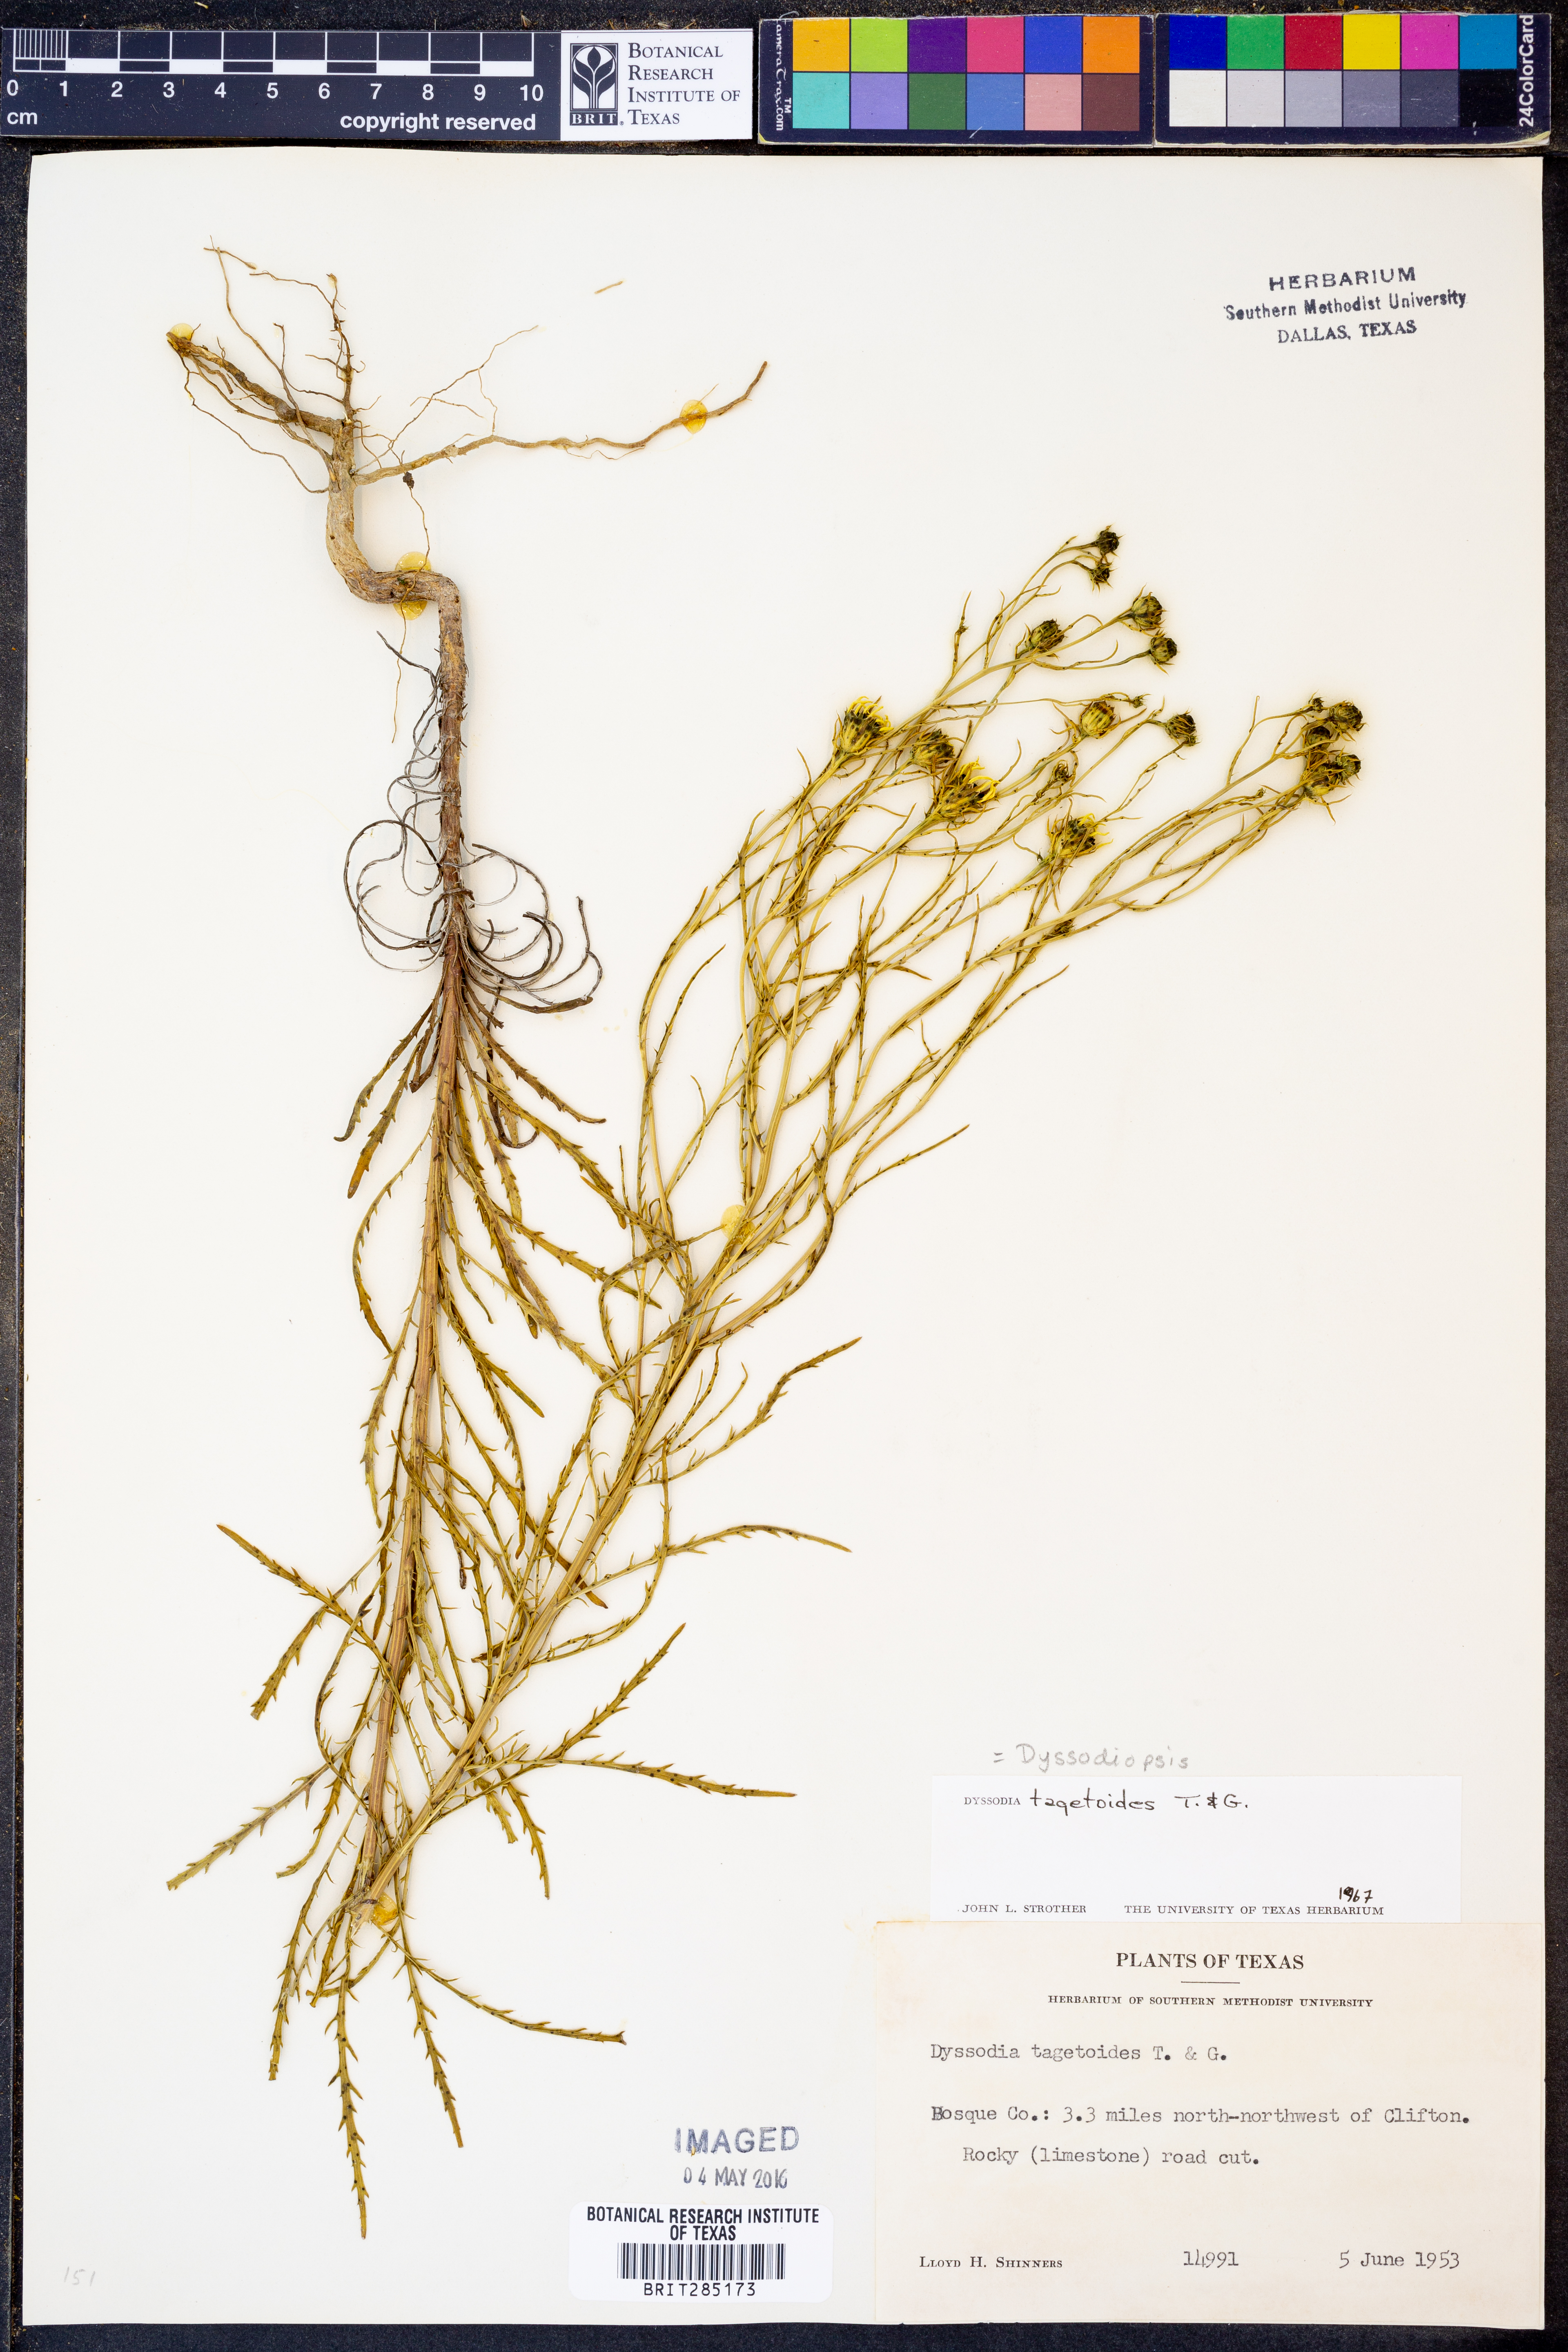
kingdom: Plantae
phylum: Tracheophyta
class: Magnoliopsida
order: Asterales
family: Asteraceae
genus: Dysodiopsis
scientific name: Dysodiopsis tagetoides
